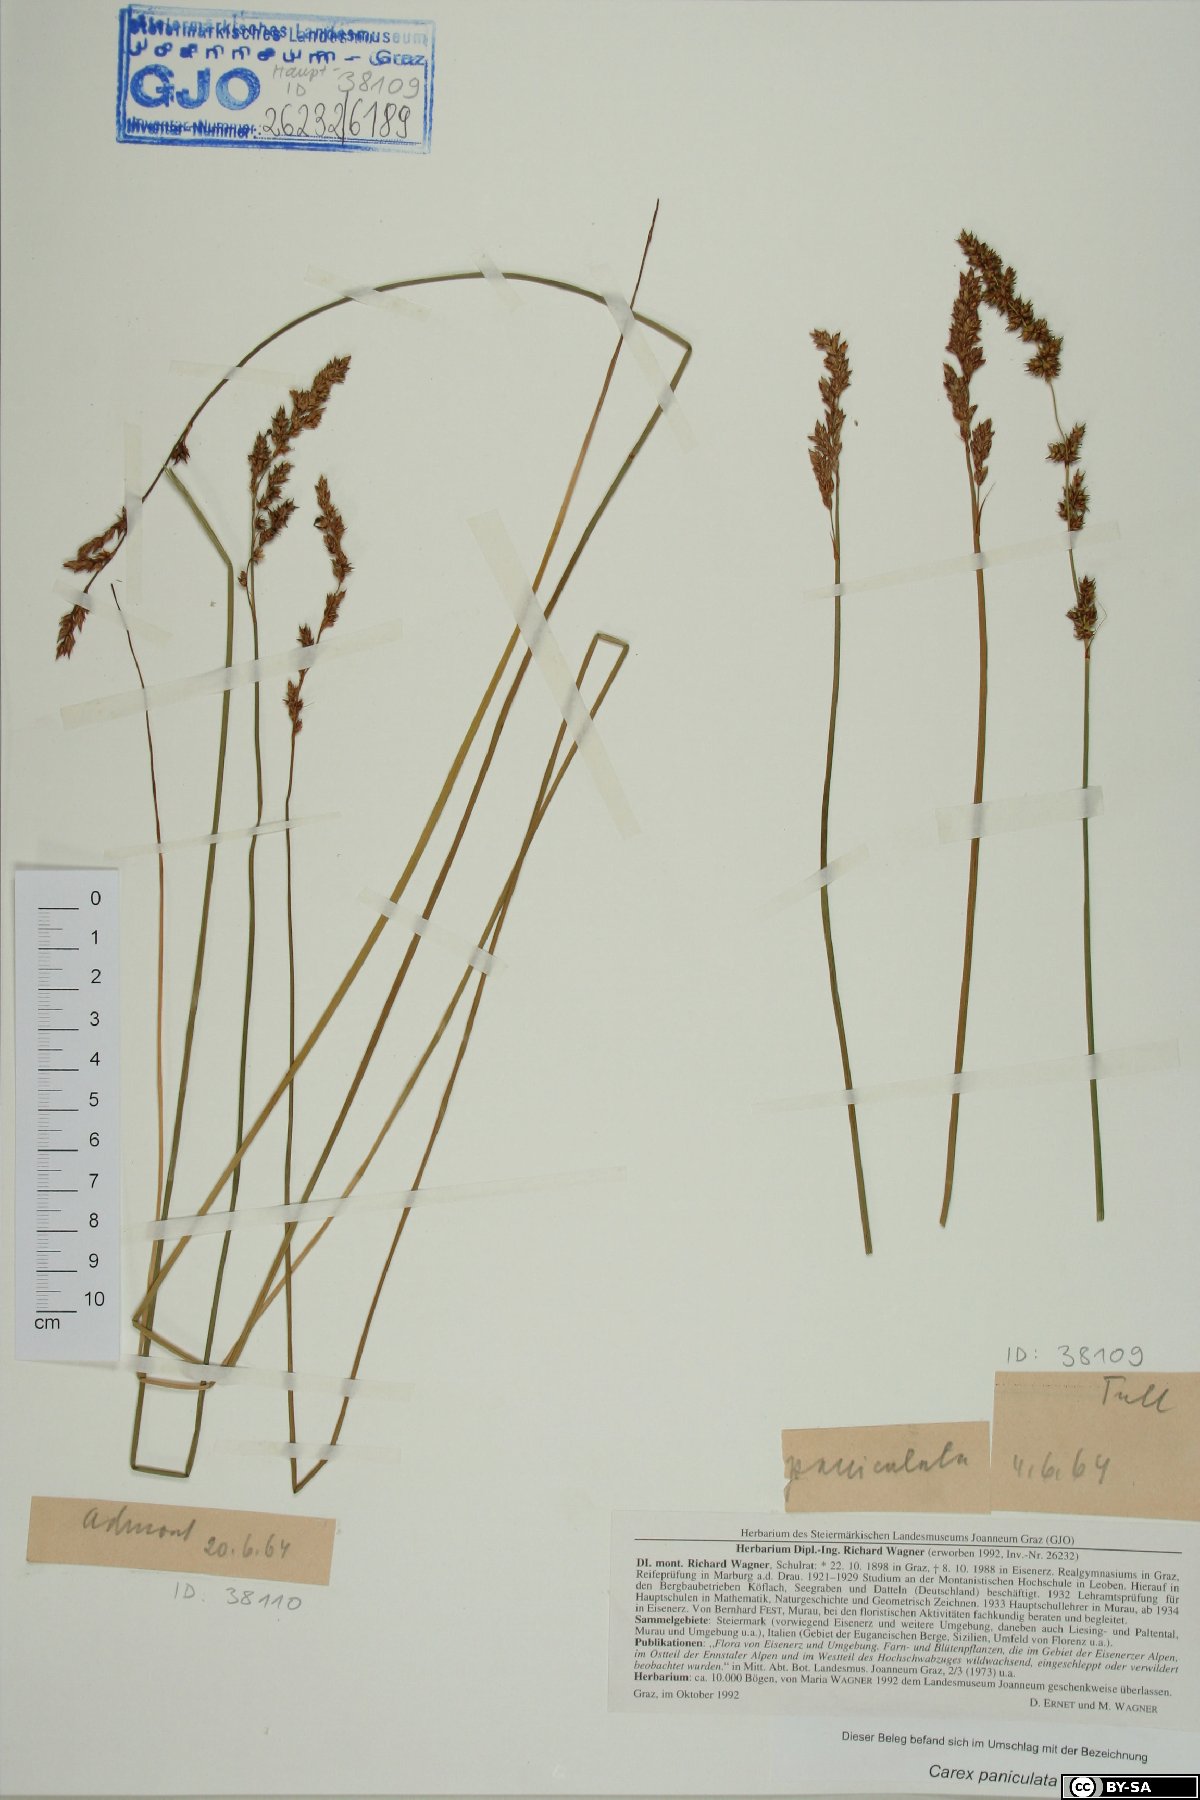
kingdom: Plantae
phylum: Tracheophyta
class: Liliopsida
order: Poales
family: Cyperaceae
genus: Carex
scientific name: Carex paniculata
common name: Greater tussock-sedge
